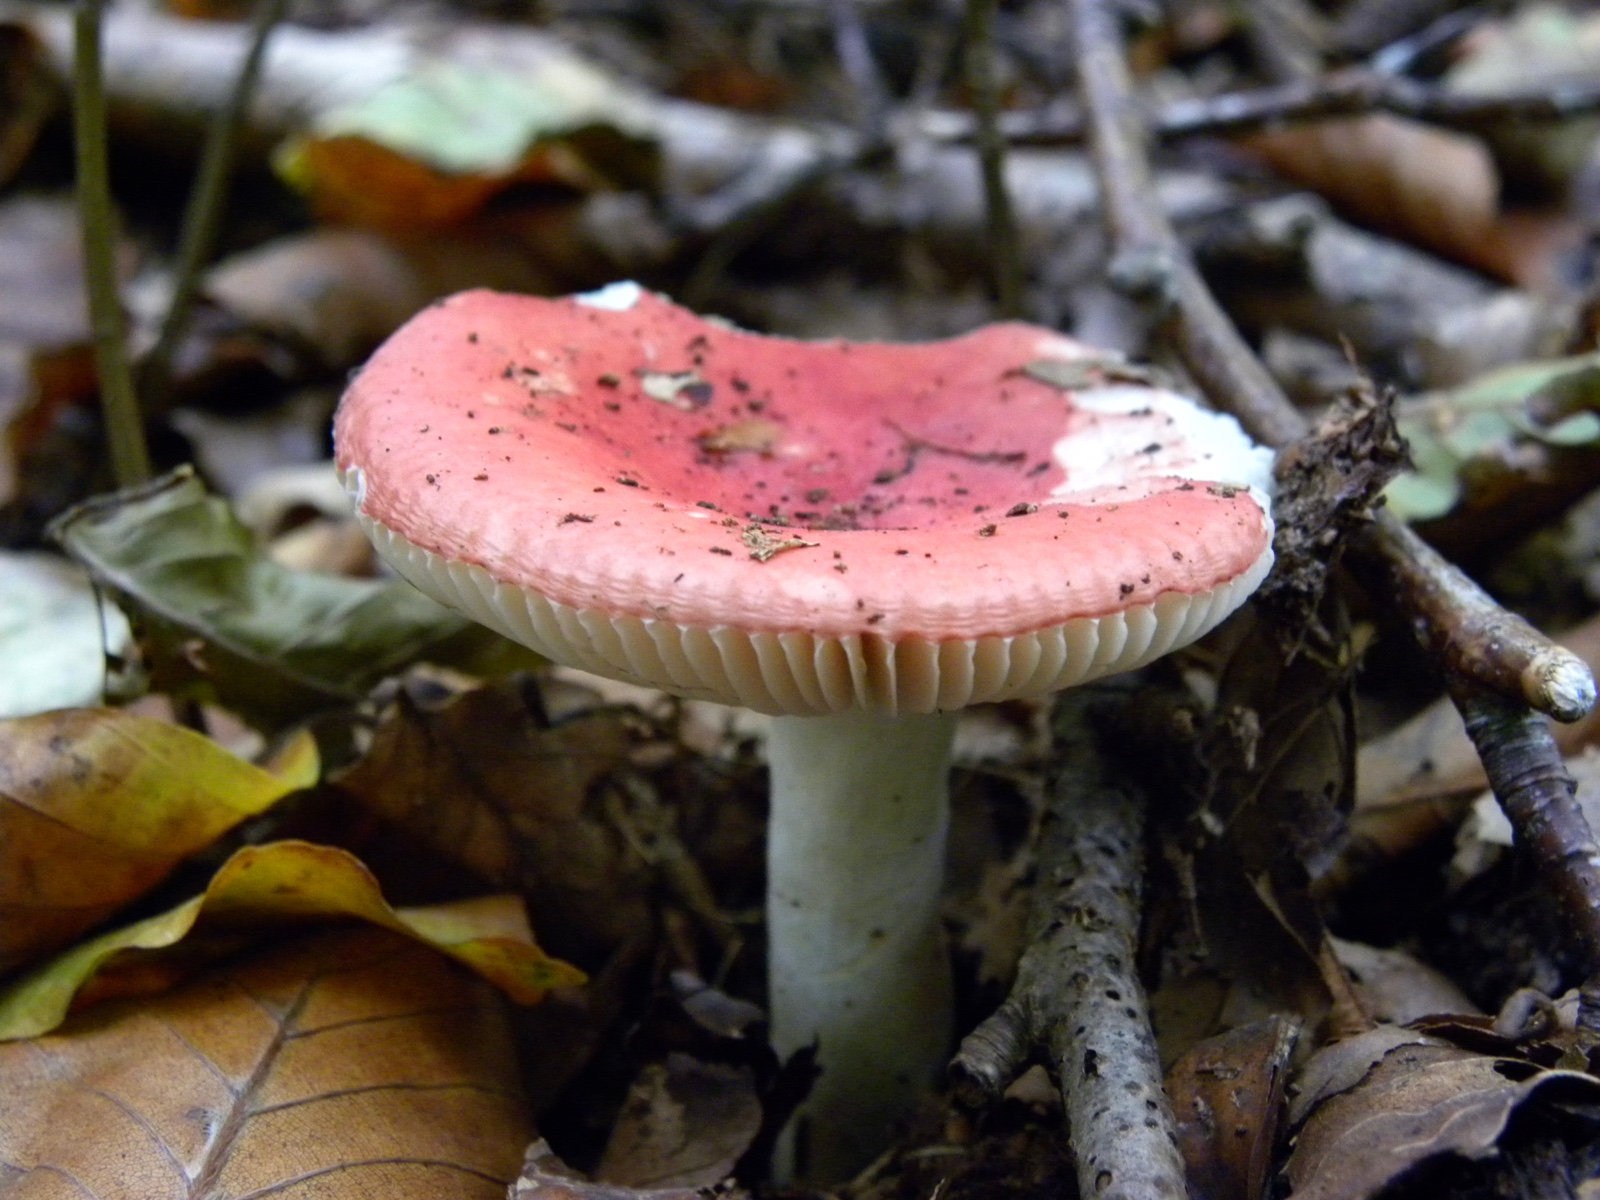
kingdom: Fungi
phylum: Basidiomycota
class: Agaricomycetes
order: Russulales
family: Russulaceae
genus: Russula
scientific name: Russula
